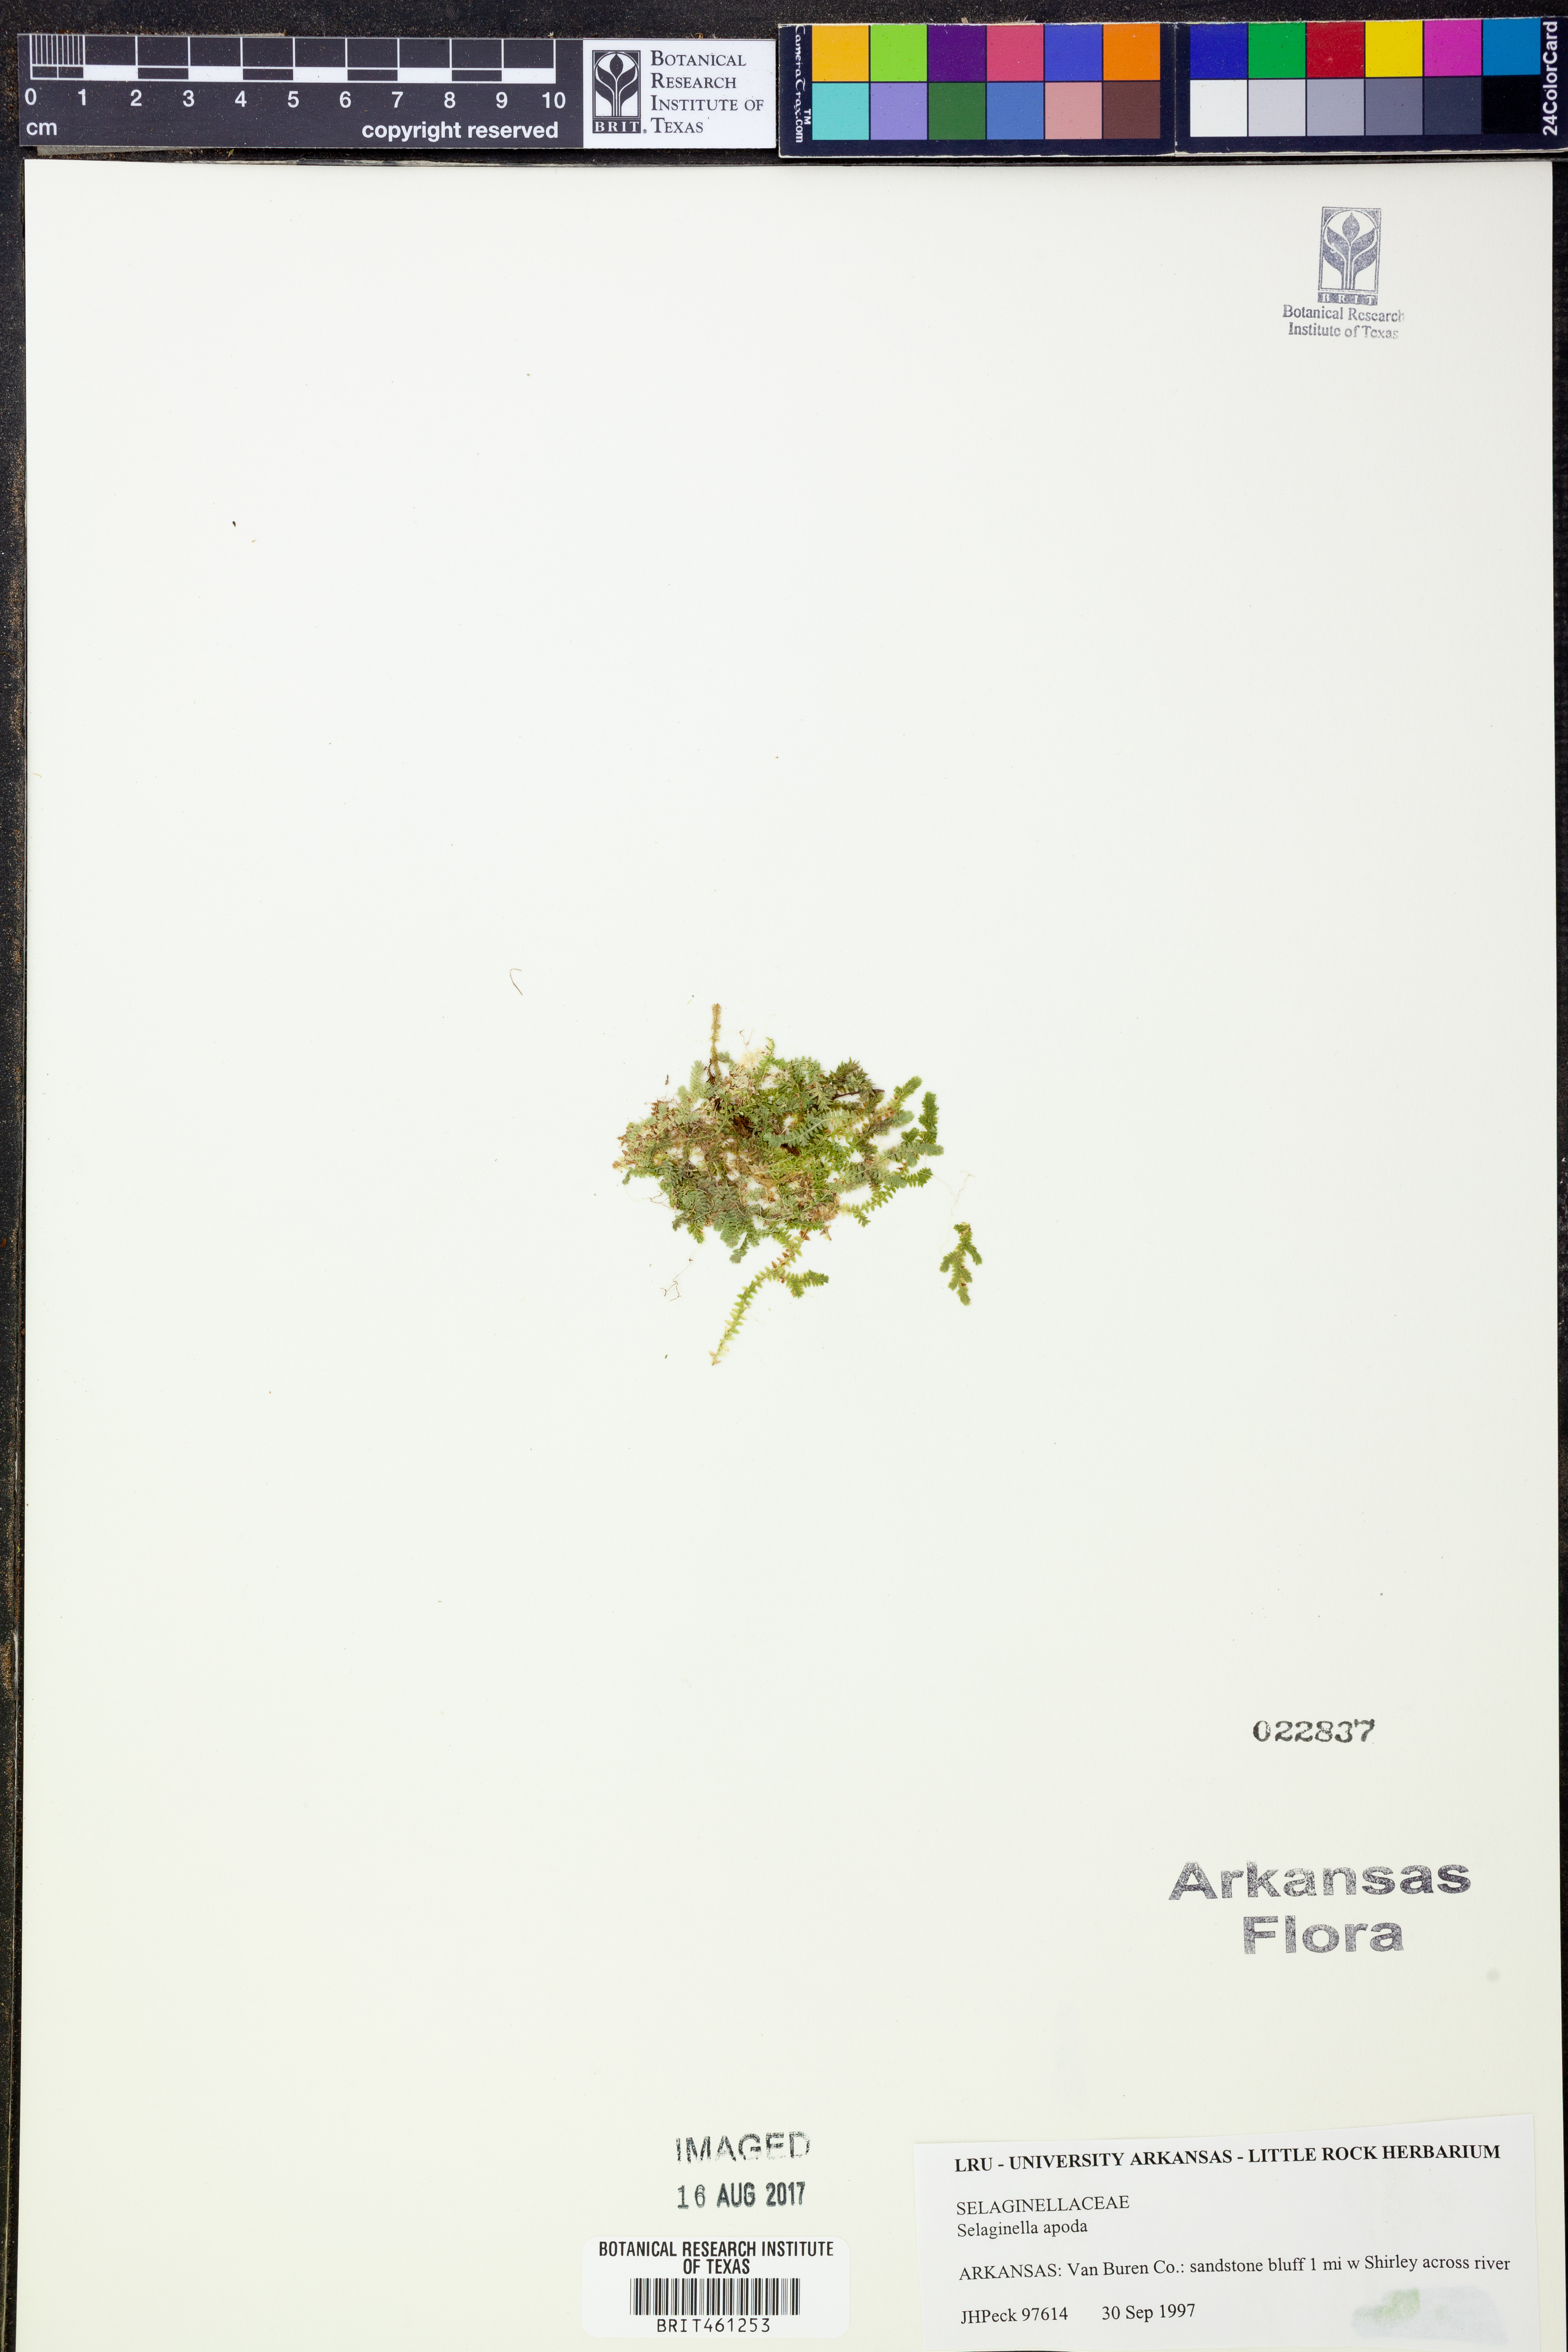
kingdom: Plantae
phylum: Tracheophyta
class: Lycopodiopsida
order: Selaginellales
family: Selaginellaceae
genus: Selaginella
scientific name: Selaginella apoda
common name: Creeping spikemoss
